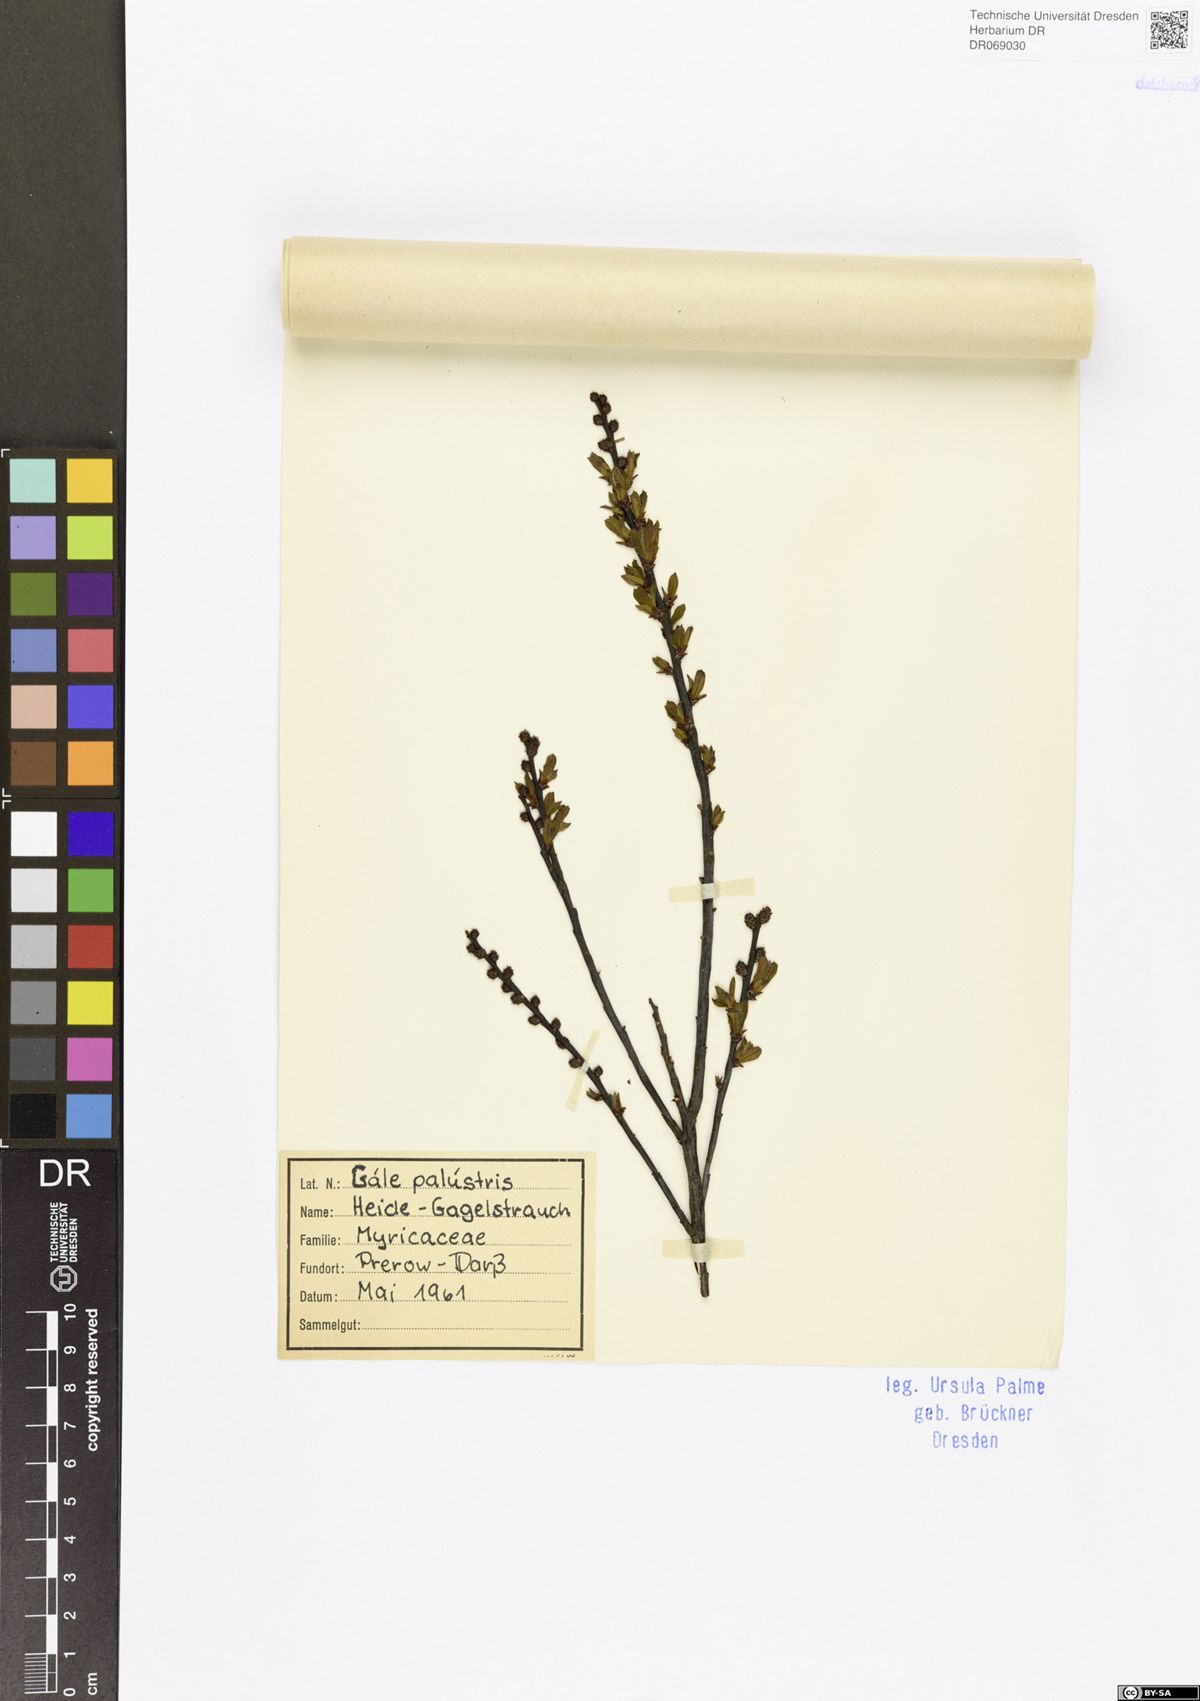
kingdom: Plantae
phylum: Tracheophyta
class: Magnoliopsida
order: Fagales
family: Myricaceae
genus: Myrica
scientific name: Myrica gale
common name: Sweet gale
